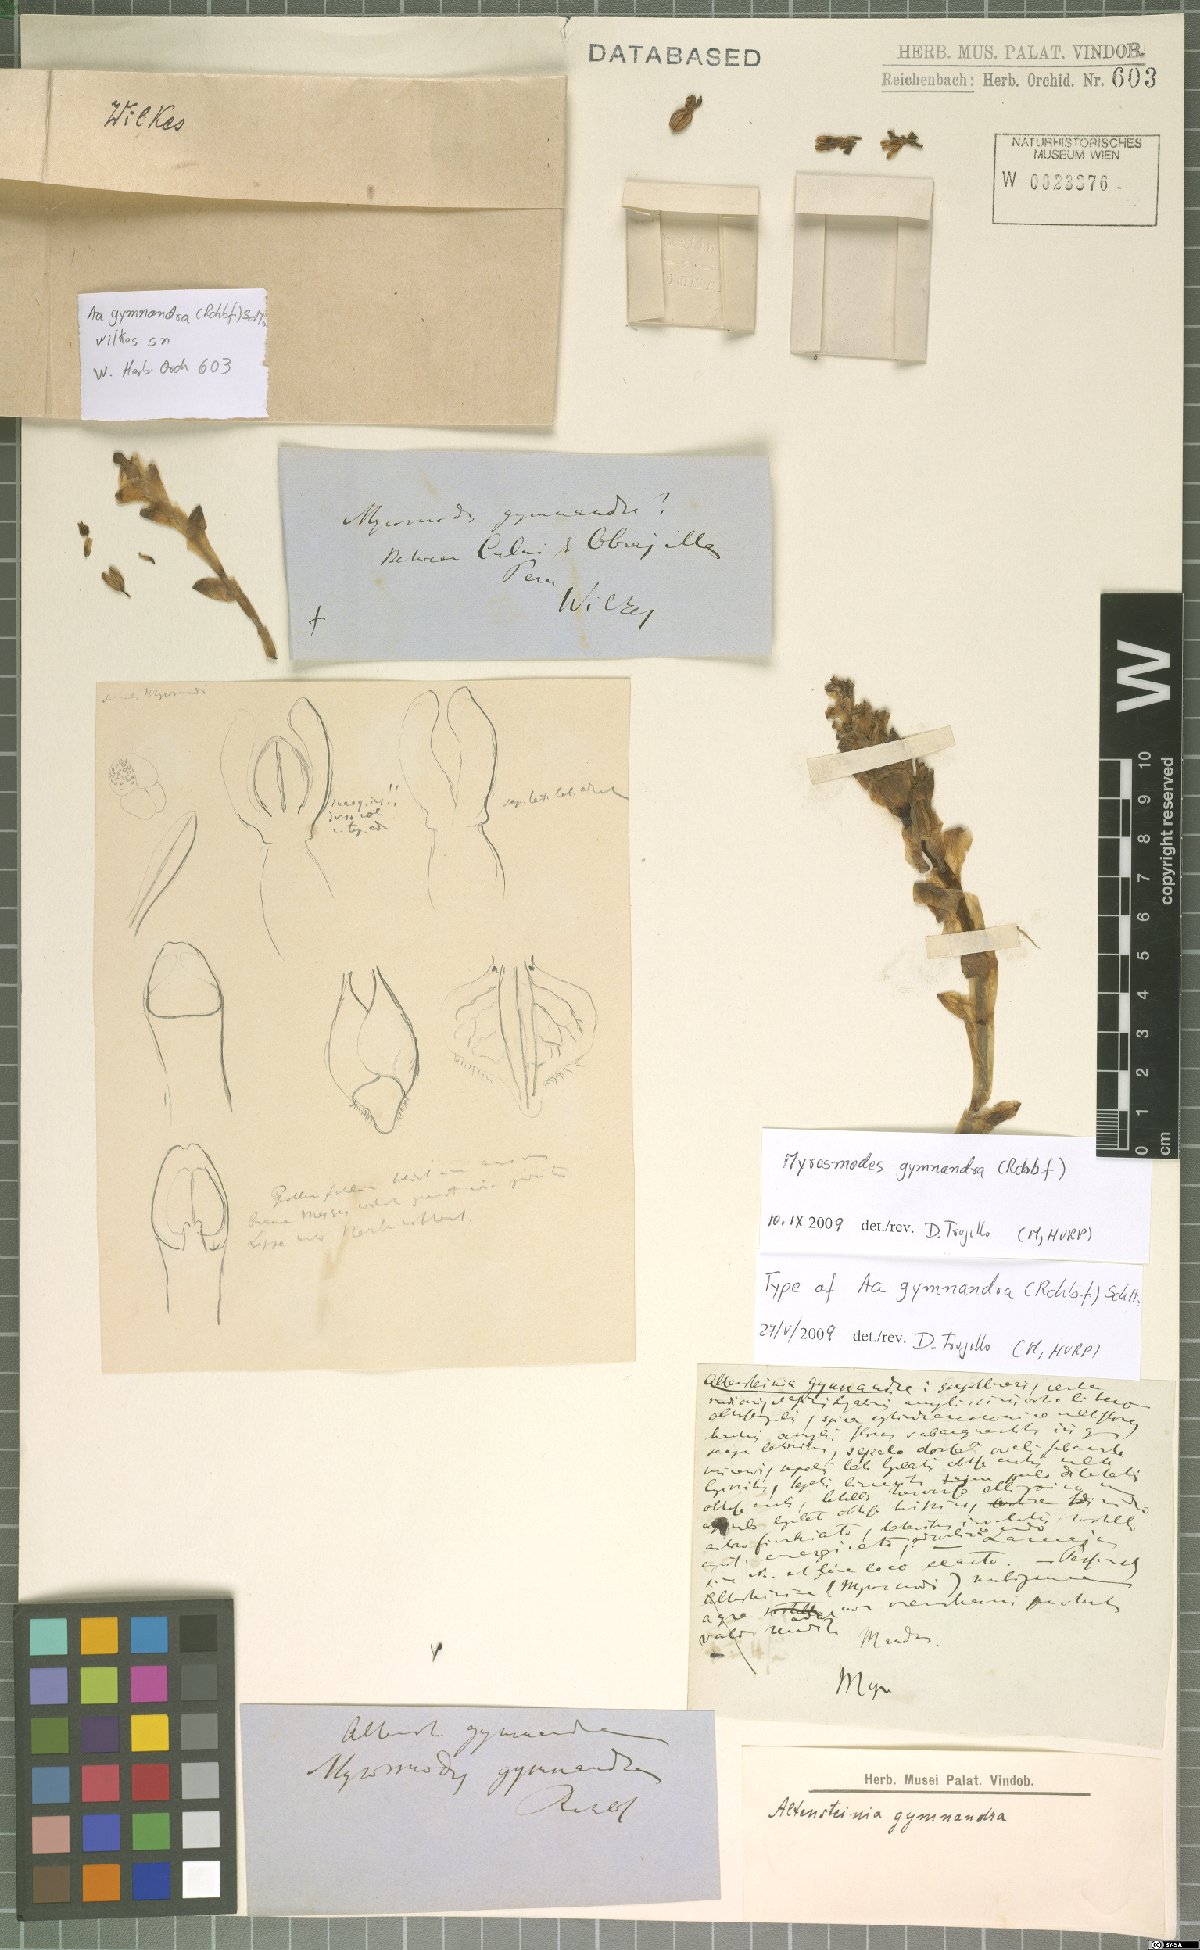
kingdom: Plantae
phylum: Tracheophyta
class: Liliopsida
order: Asparagales
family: Orchidaceae
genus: Myrosmodes
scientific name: Myrosmodes gymnandra
